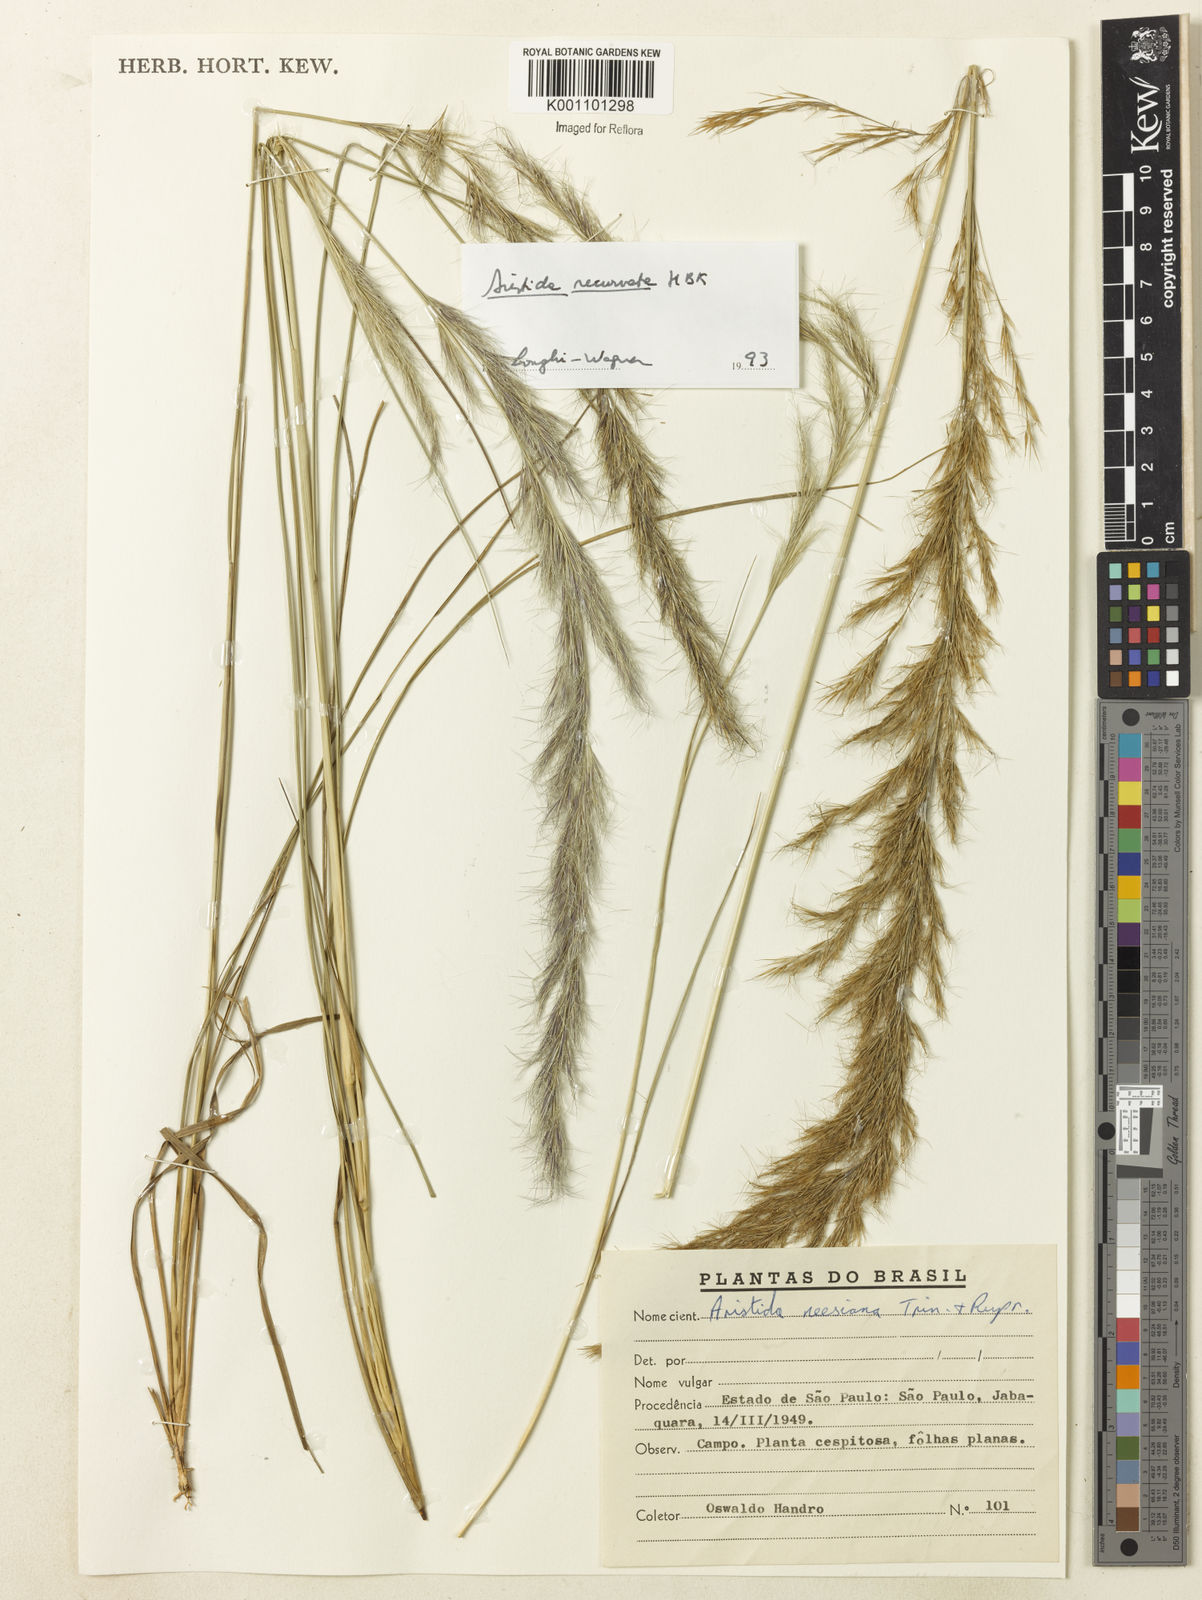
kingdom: Plantae
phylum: Tracheophyta
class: Liliopsida
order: Poales
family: Poaceae
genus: Aristida
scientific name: Aristida recurvata
